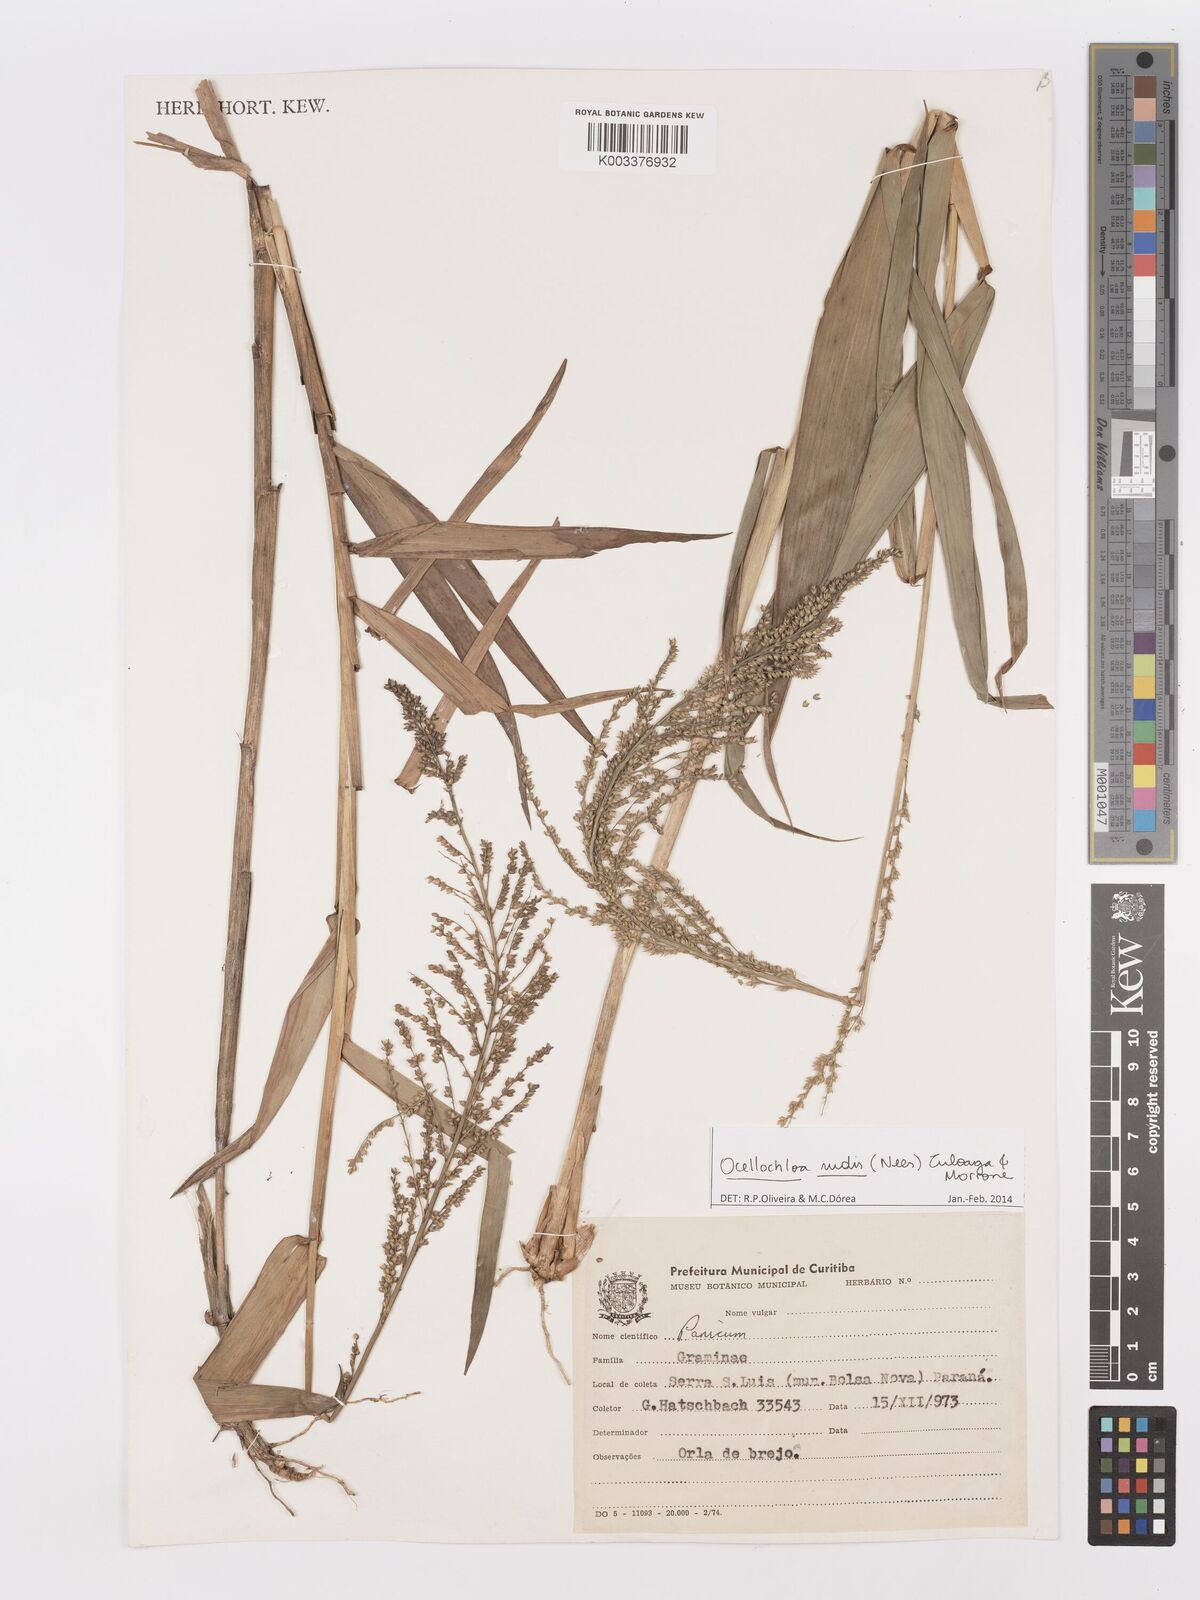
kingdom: Plantae
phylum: Tracheophyta
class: Liliopsida
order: Poales
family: Poaceae
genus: Ocellochloa
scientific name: Ocellochloa rudis
